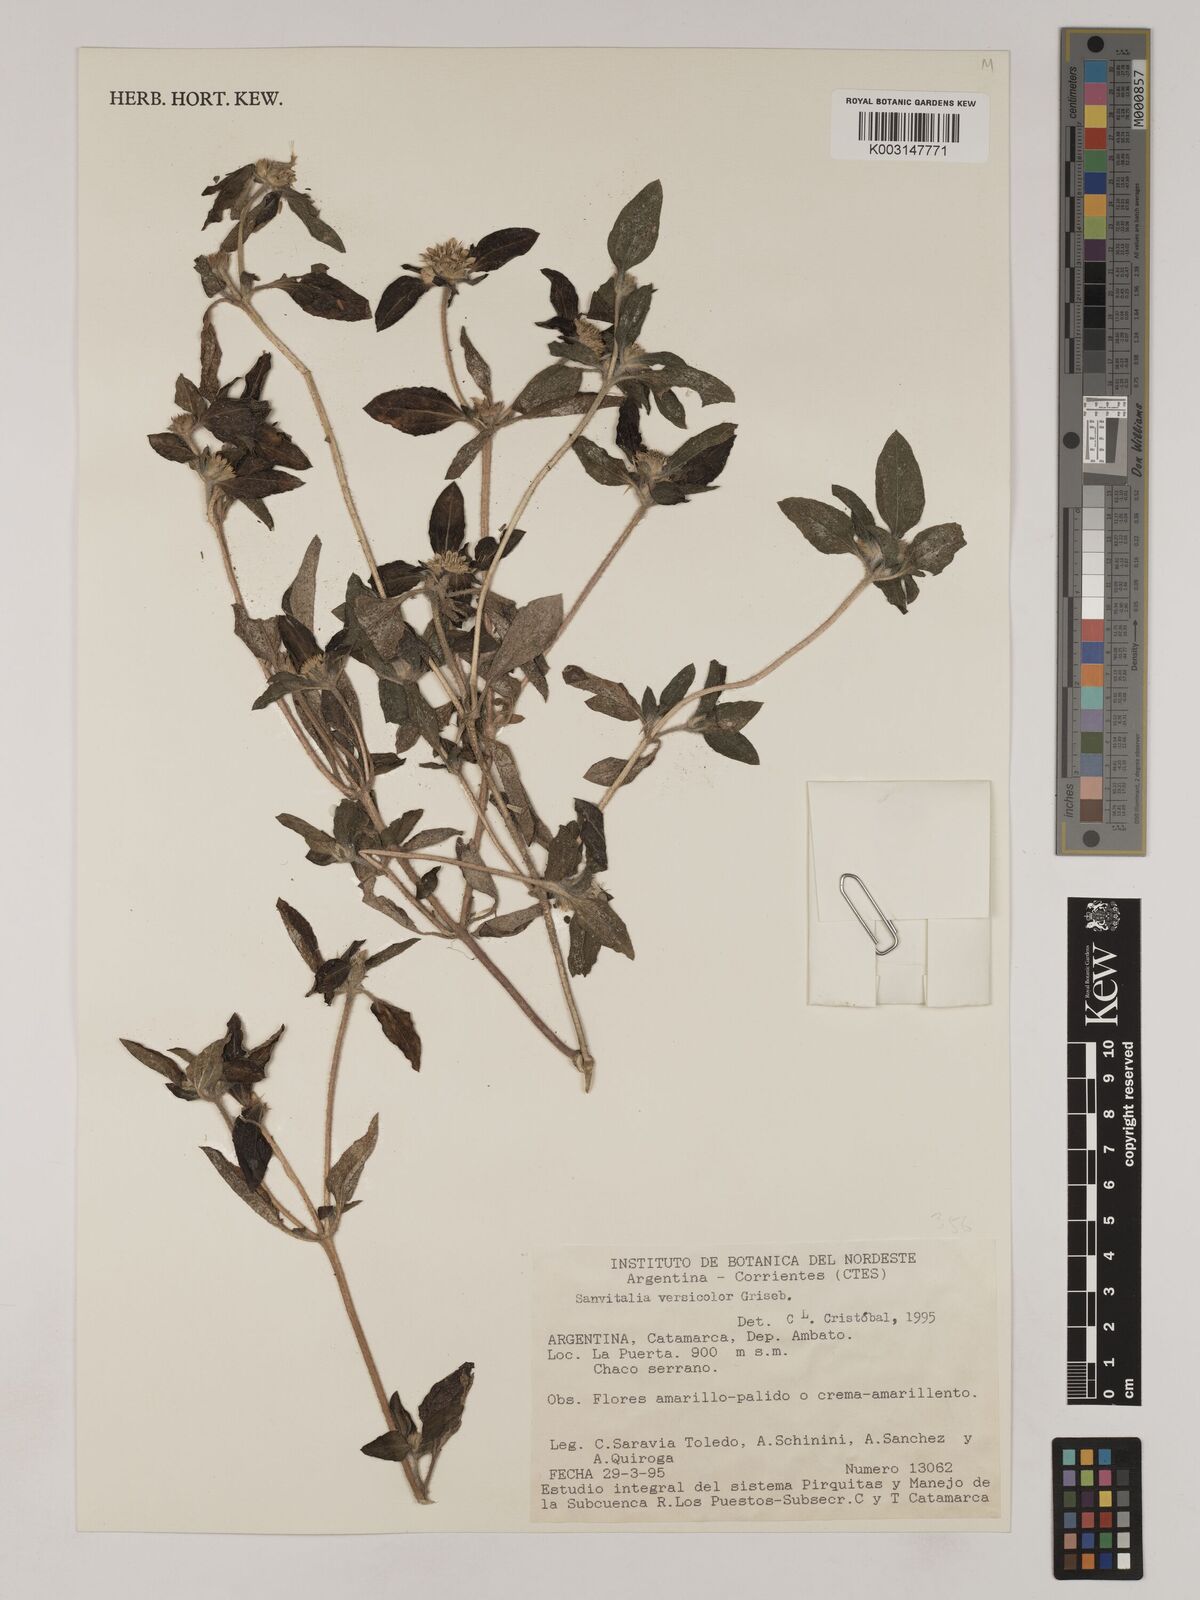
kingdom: Plantae
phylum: Tracheophyta
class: Magnoliopsida
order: Asterales
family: Asteraceae
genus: Sanvitalia
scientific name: Sanvitalia versicolor
